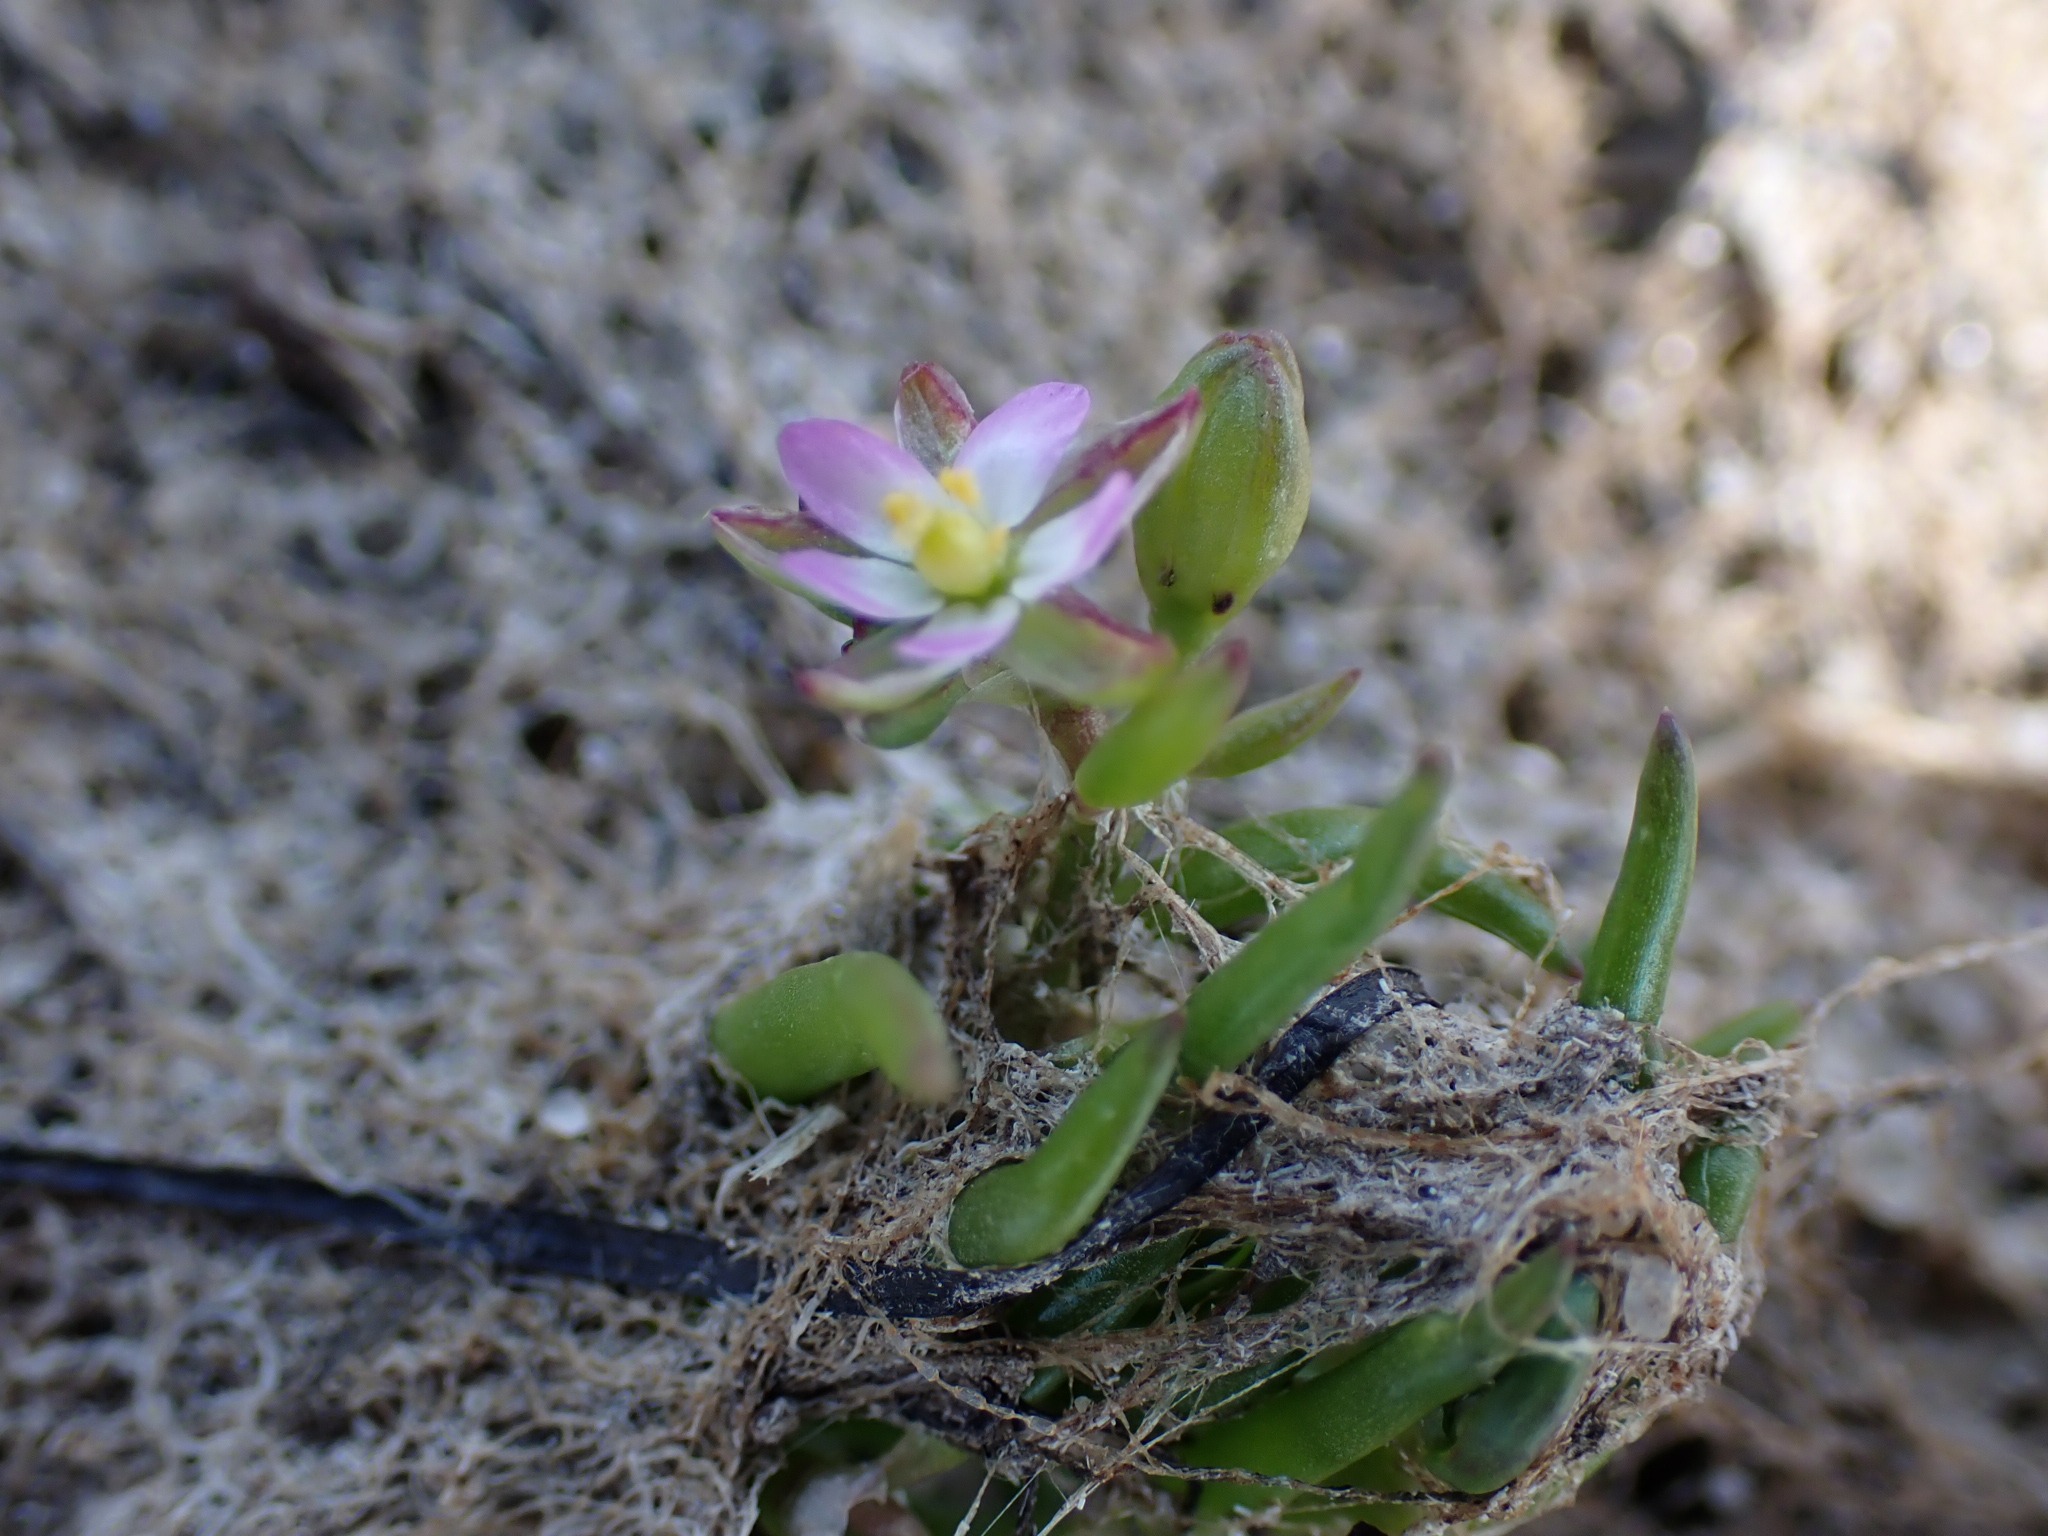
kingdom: Plantae
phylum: Tracheophyta
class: Magnoliopsida
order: Caryophyllales
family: Caryophyllaceae
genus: Spergularia
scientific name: Spergularia marina
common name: Kødet hindeknæ
